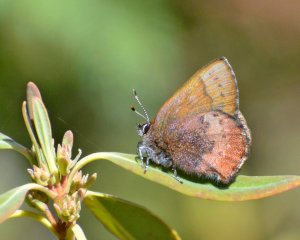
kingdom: Animalia
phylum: Arthropoda
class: Insecta
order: Lepidoptera
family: Lycaenidae
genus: Incisalia
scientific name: Incisalia irioides
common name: Brown Elfin
